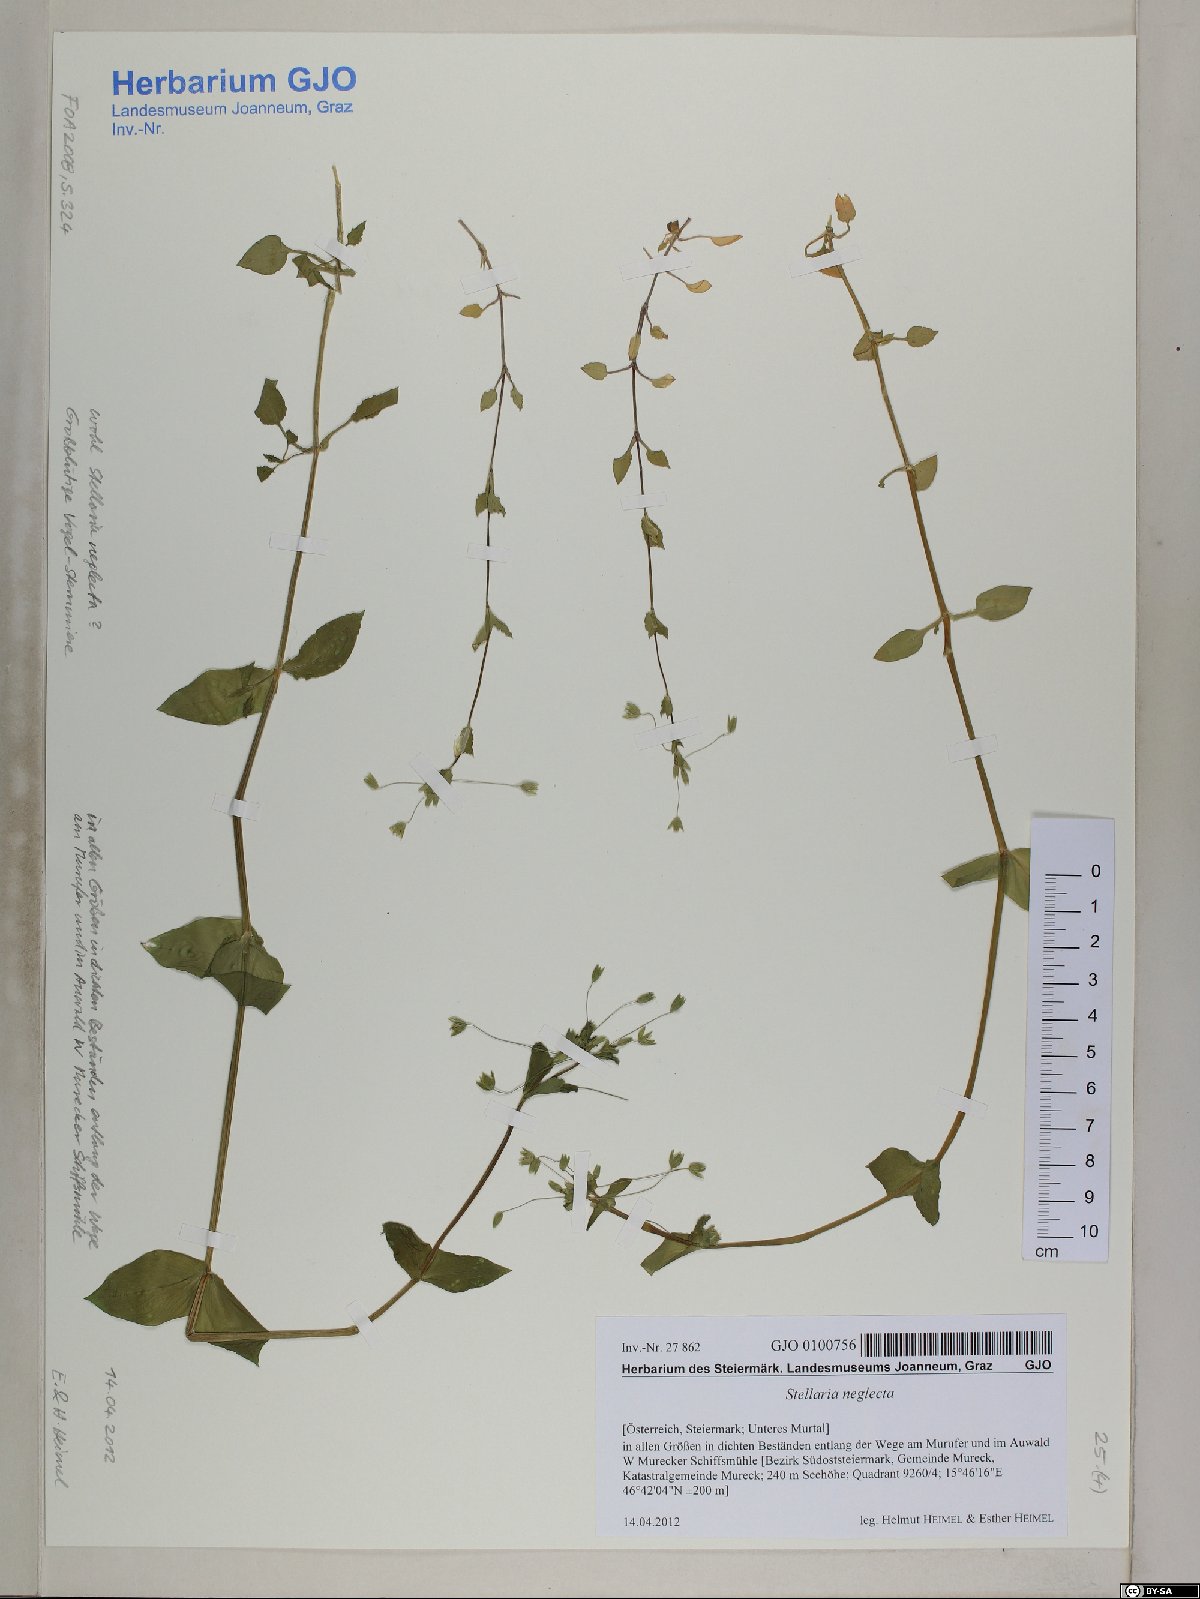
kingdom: Plantae
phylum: Tracheophyta
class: Magnoliopsida
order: Caryophyllales
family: Caryophyllaceae
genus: Stellaria
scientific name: Stellaria neglecta
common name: Greater chickweed
